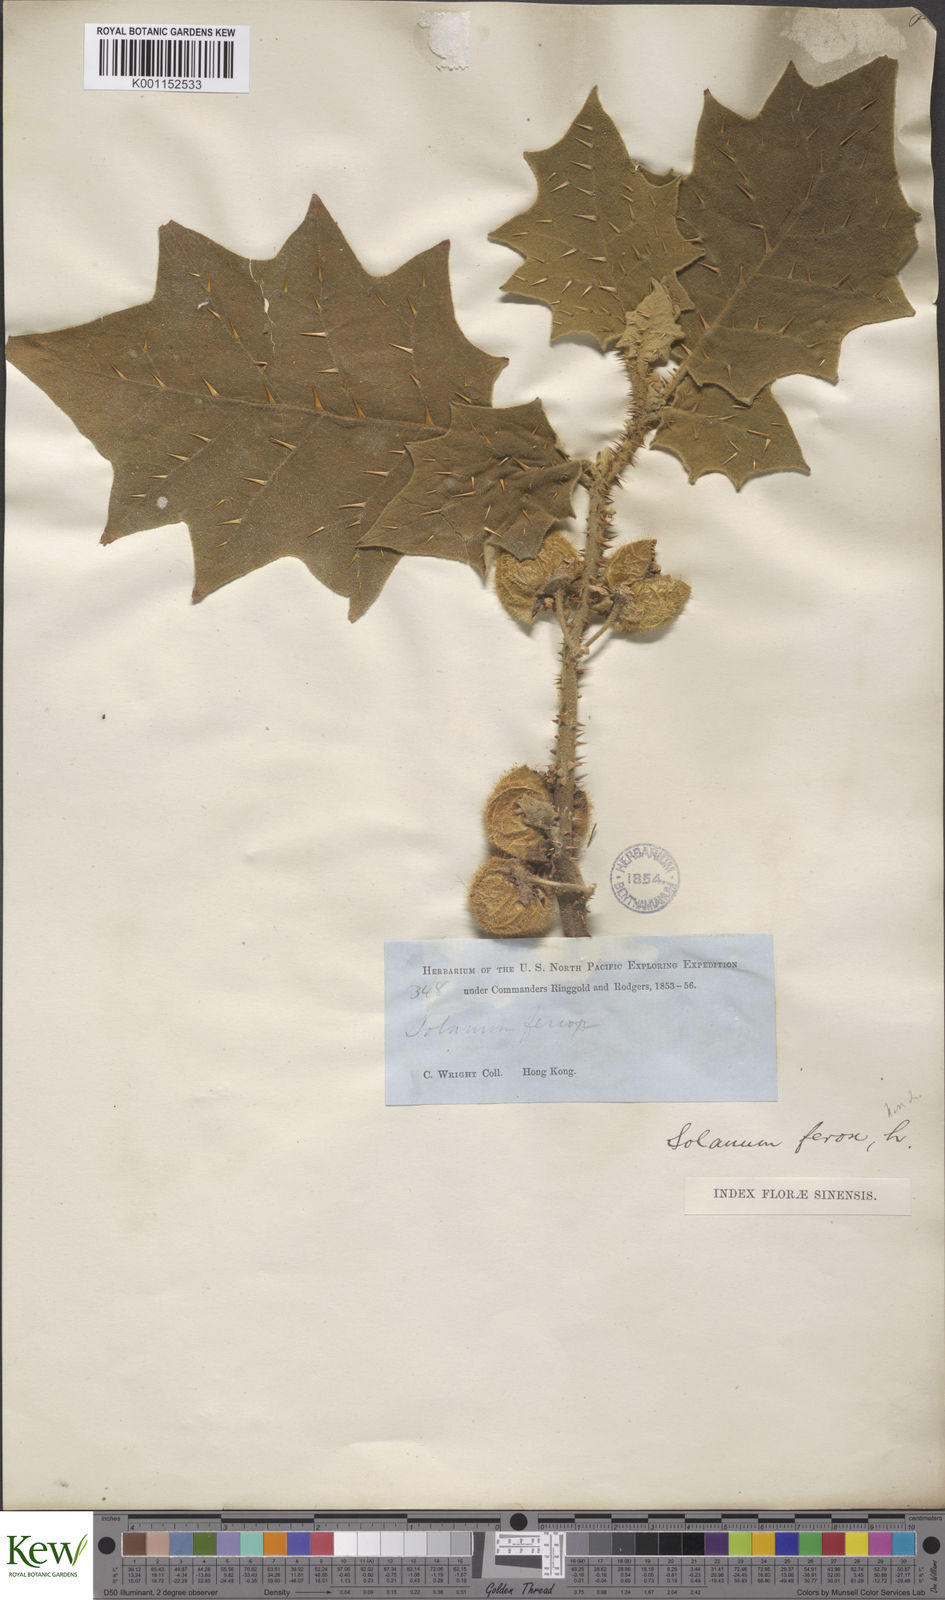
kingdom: Plantae
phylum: Tracheophyta
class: Magnoliopsida
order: Solanales
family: Solanaceae
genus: Solanum
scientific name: Solanum lasiocarpum
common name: Indian nightshade
